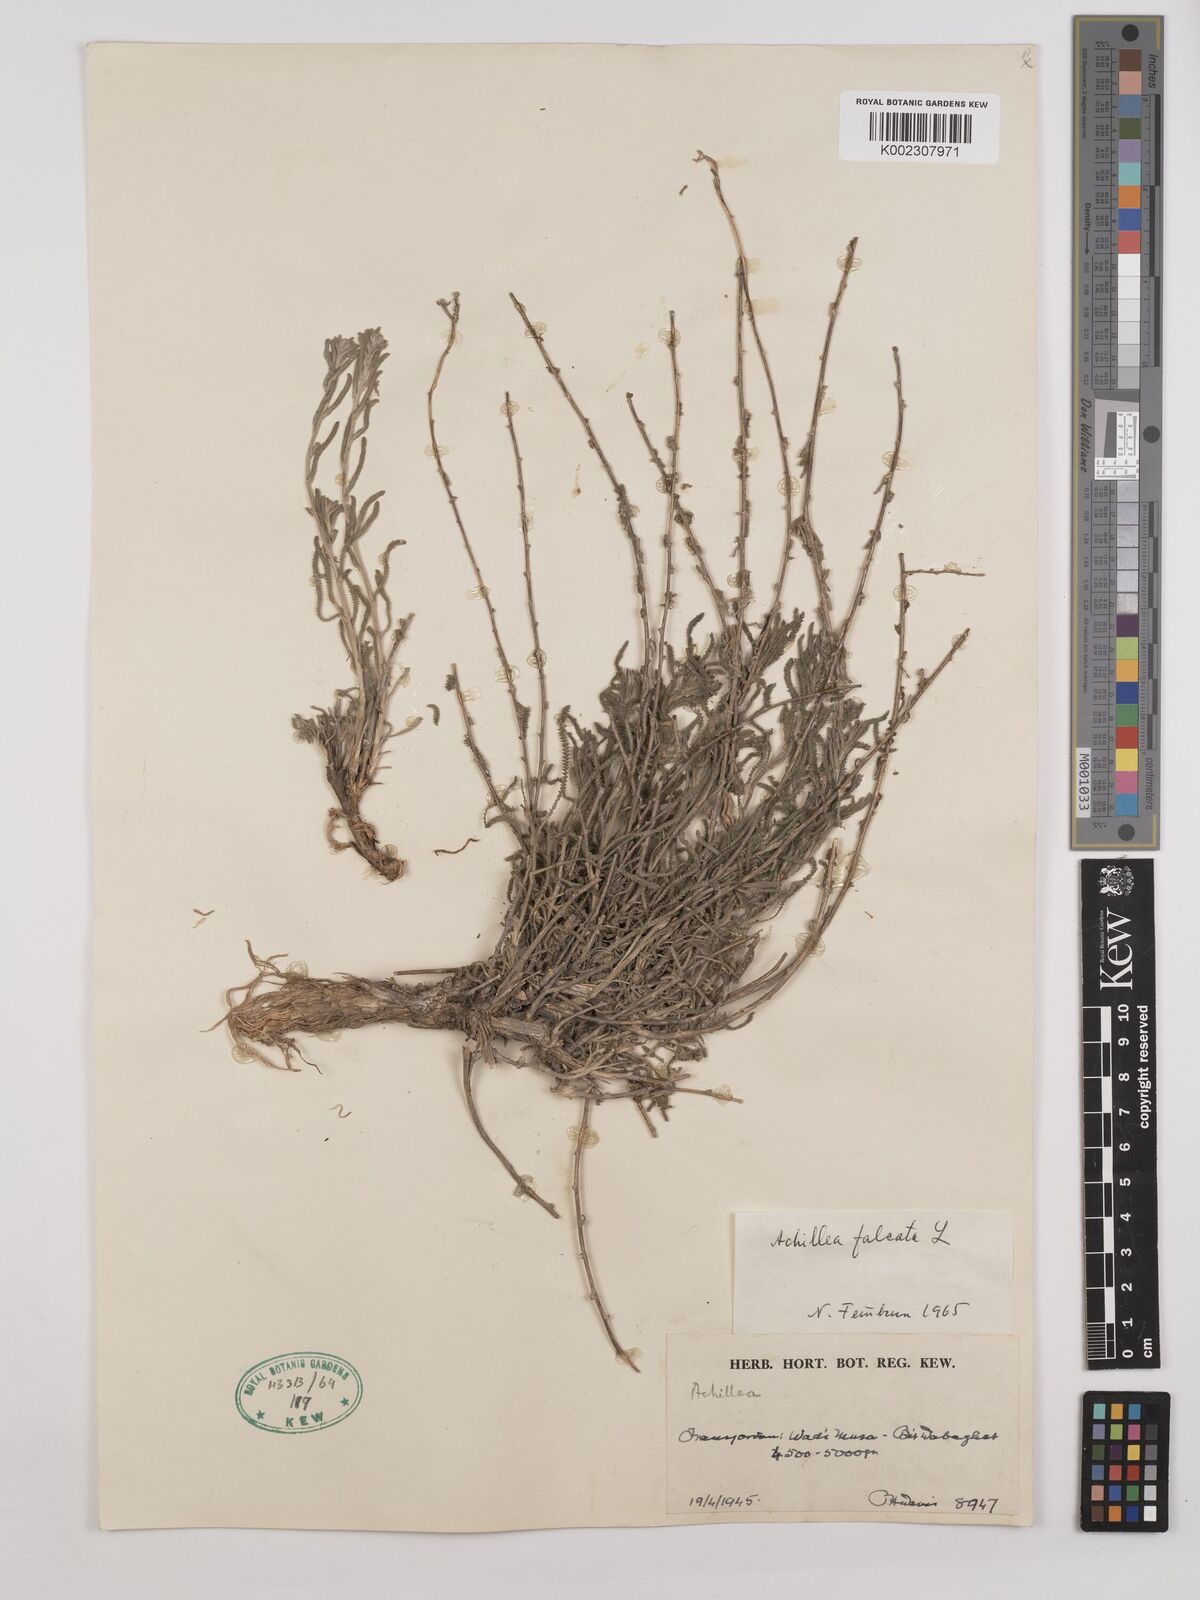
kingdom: Plantae
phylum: Tracheophyta
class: Magnoliopsida
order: Asterales
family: Asteraceae
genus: Achillea
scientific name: Achillea falcata
